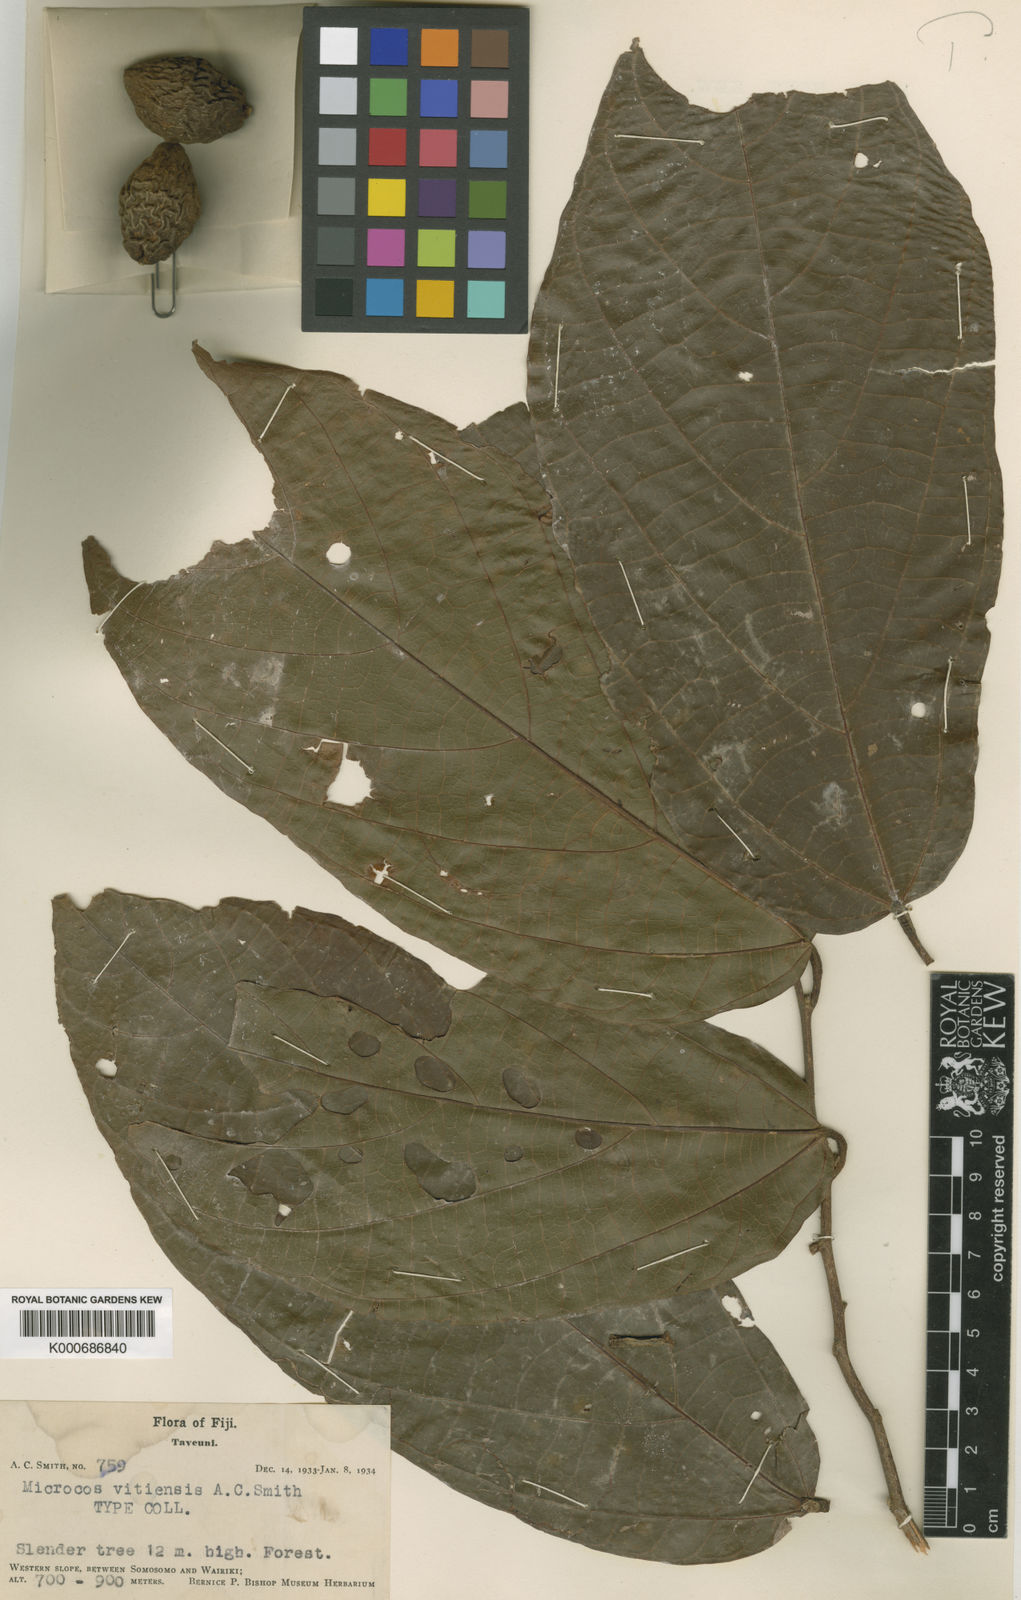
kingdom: Plantae
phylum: Tracheophyta
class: Magnoliopsida
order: Malvales
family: Malvaceae
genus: Microcos
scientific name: Microcos vitiensis
